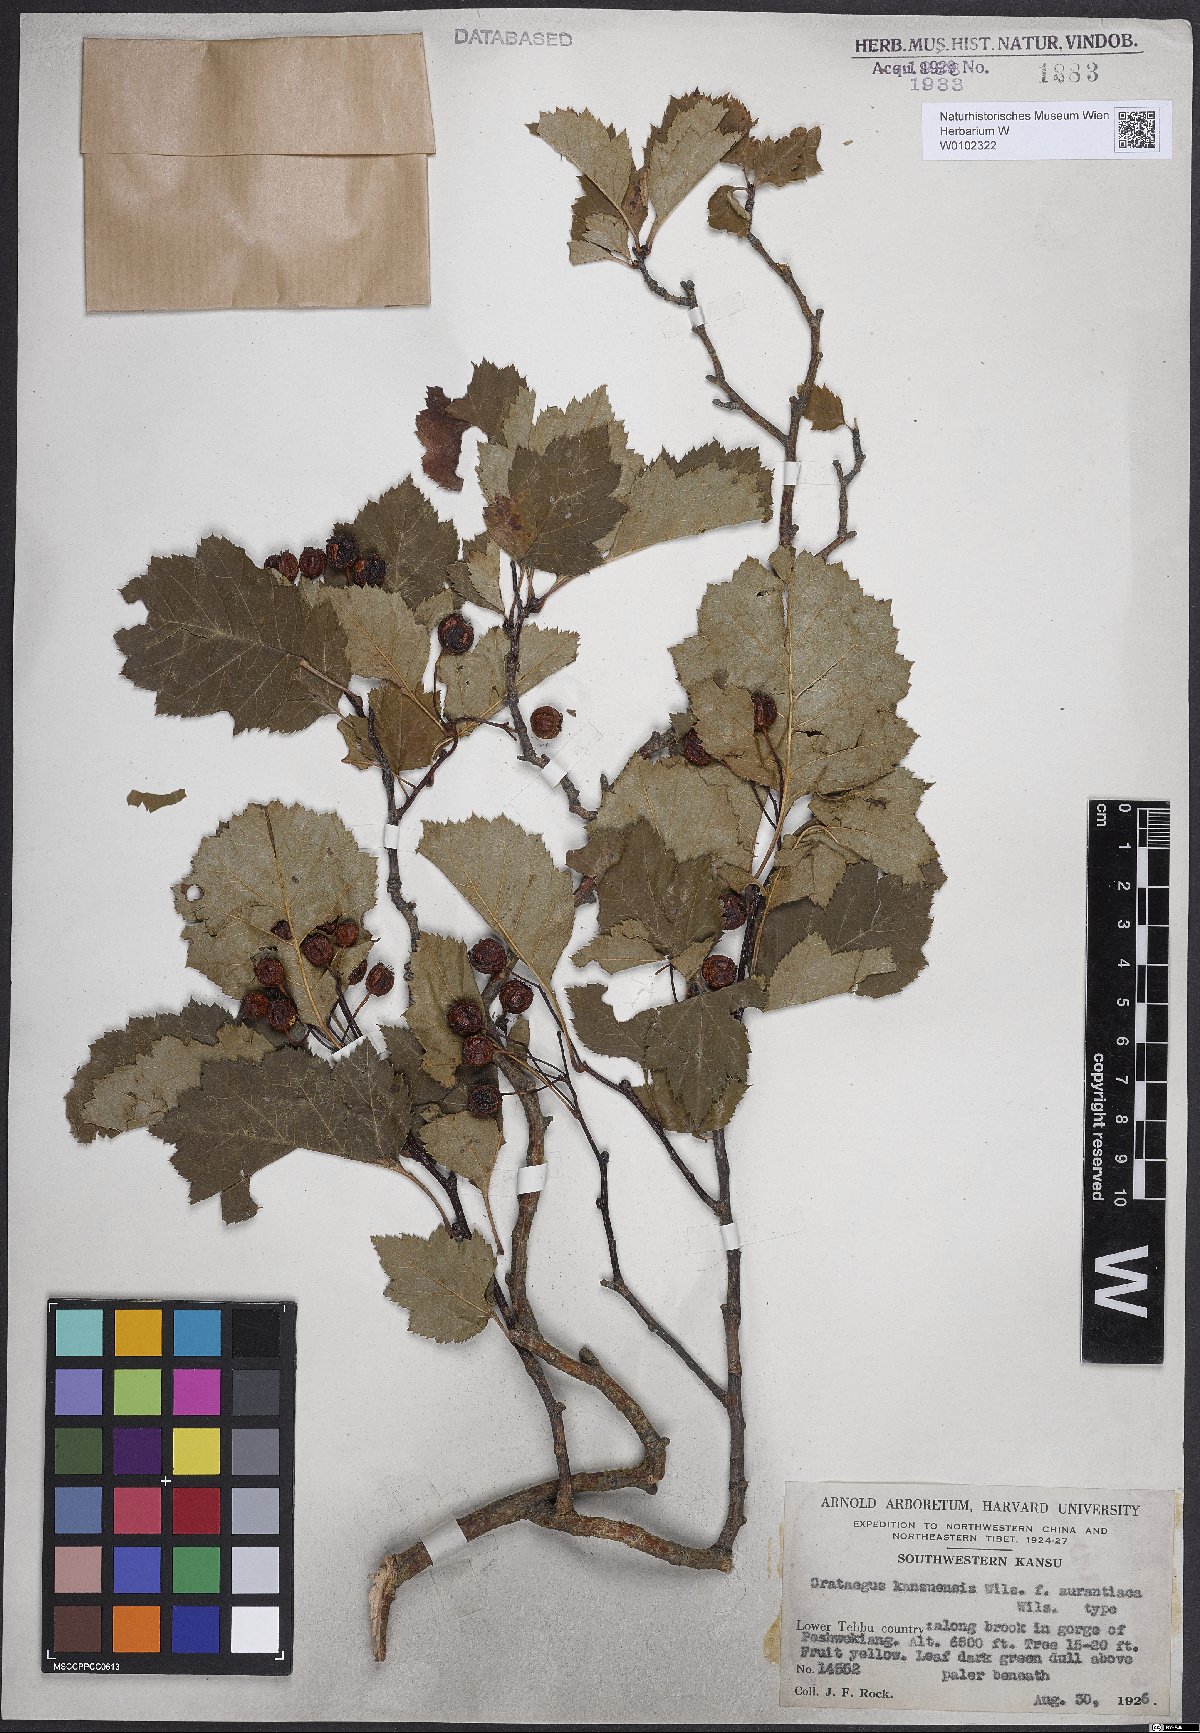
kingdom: Plantae
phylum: Tracheophyta
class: Magnoliopsida
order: Rosales
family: Rosaceae
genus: Crataegus
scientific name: Crataegus kansuensis
